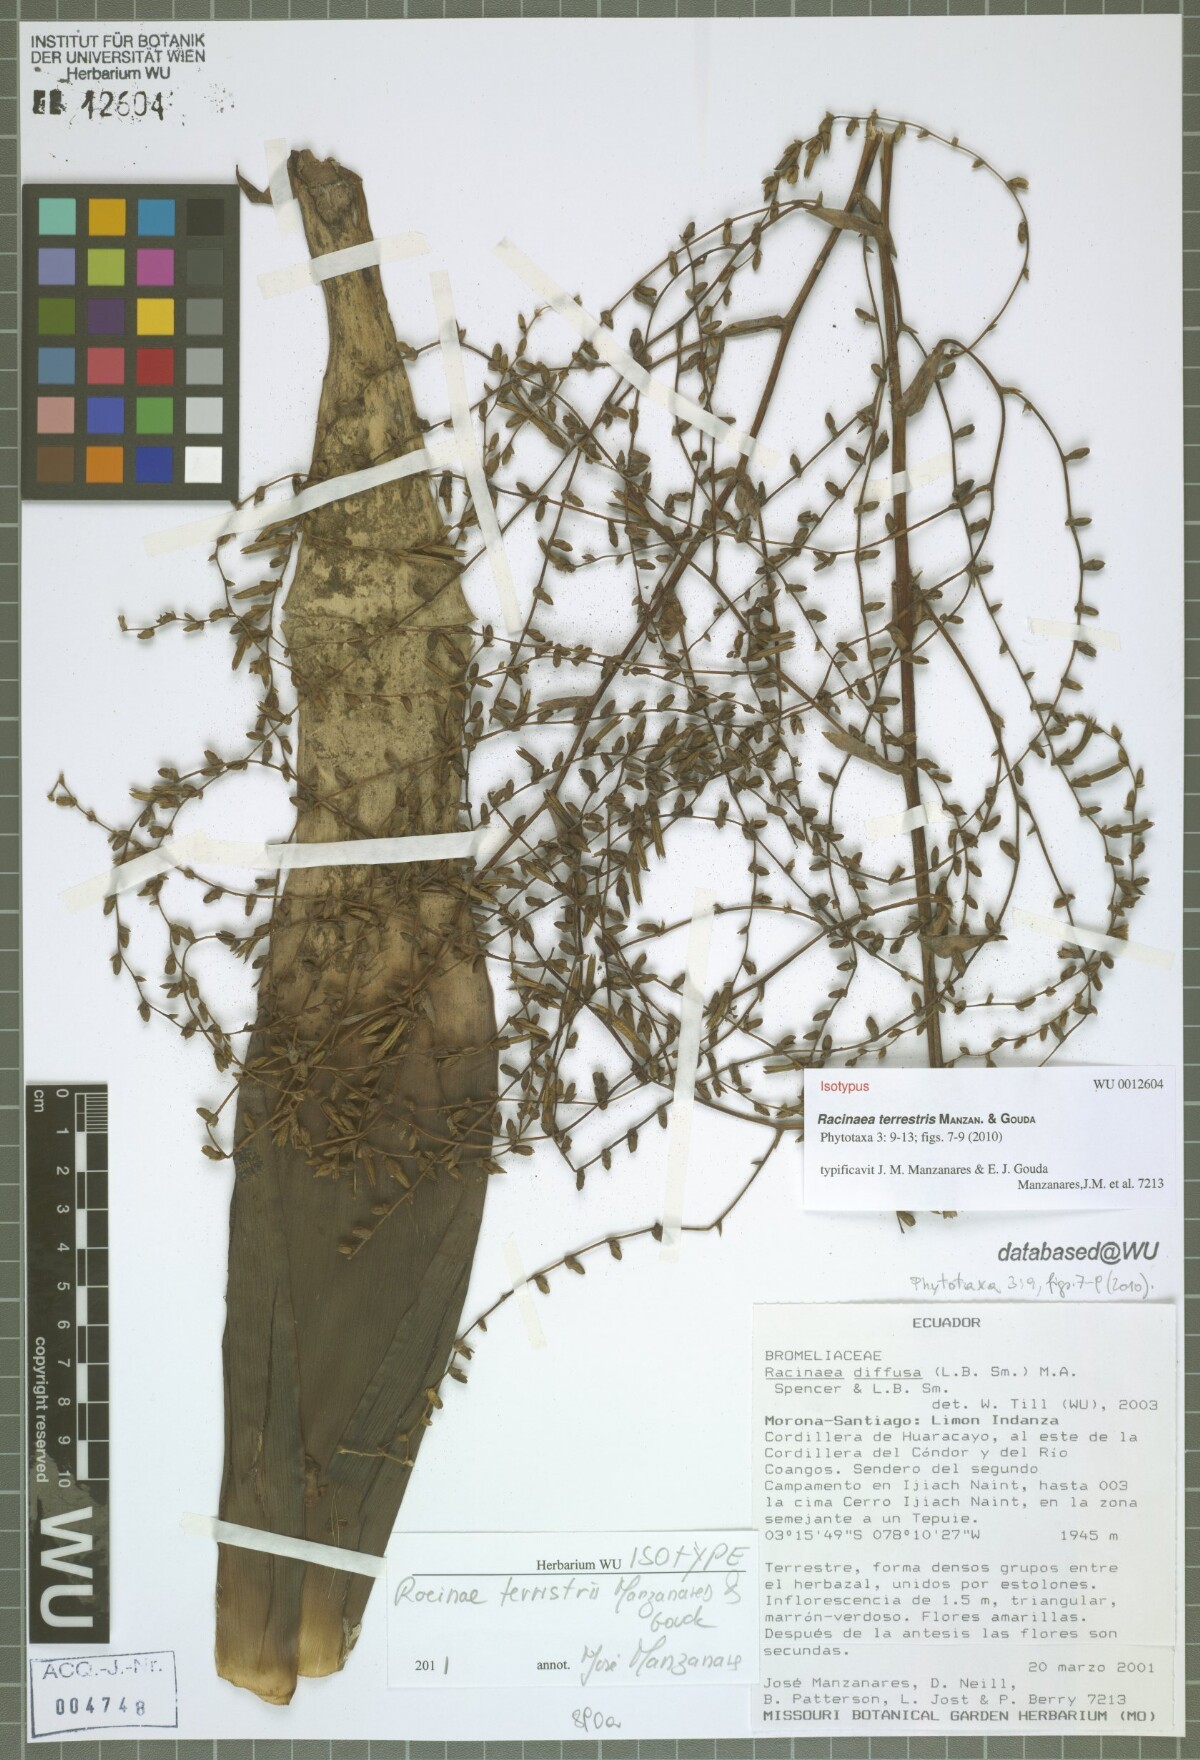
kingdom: Plantae
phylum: Tracheophyta
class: Liliopsida
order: Poales
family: Bromeliaceae
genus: Racinaea
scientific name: Racinaea terrestris
